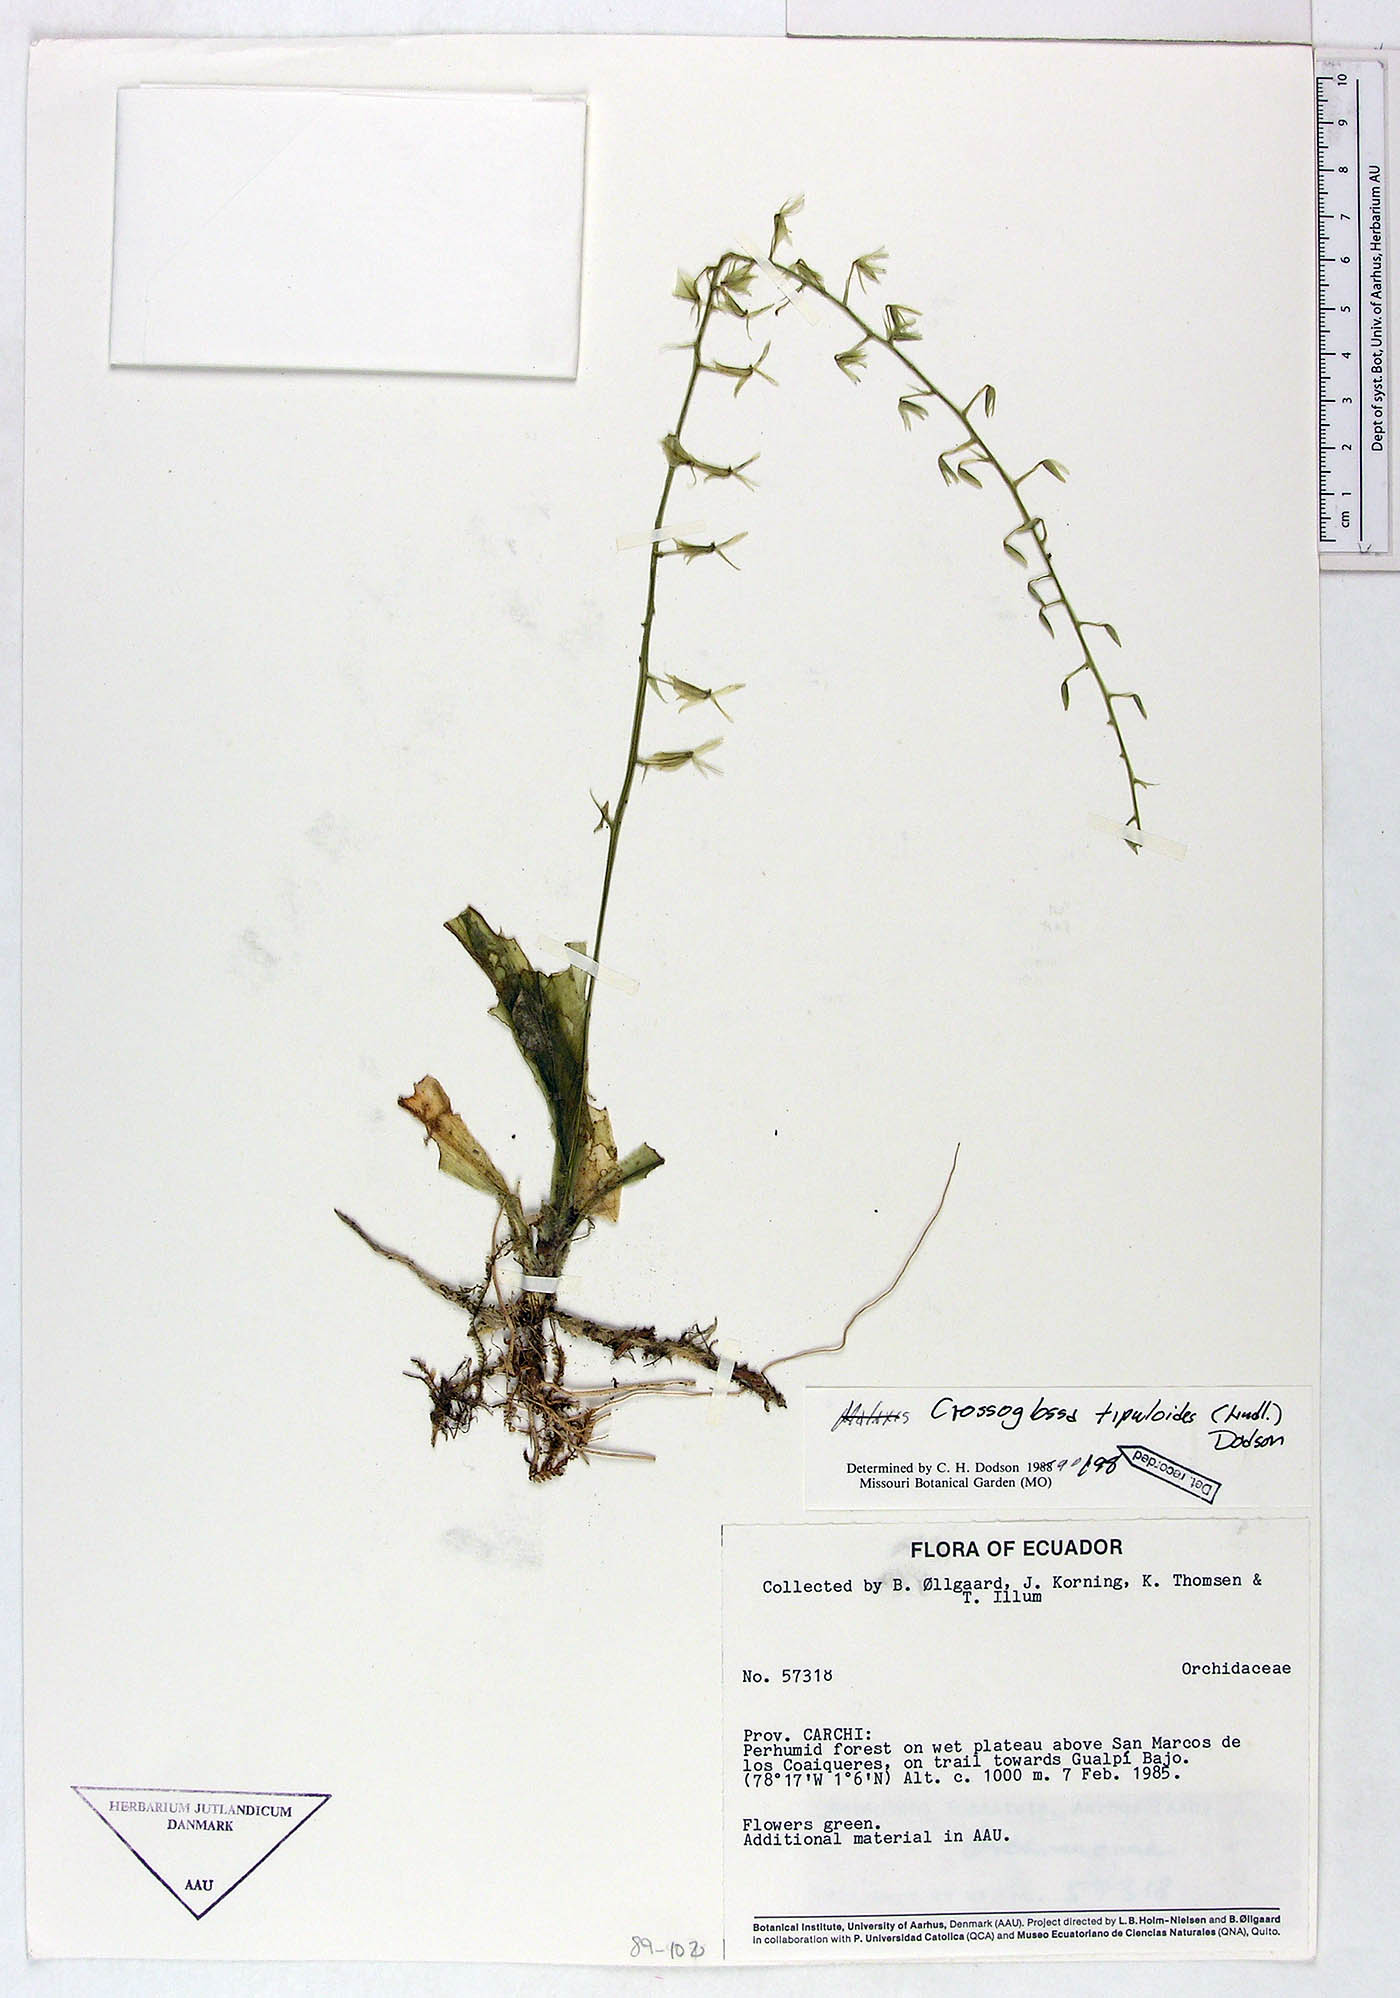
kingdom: Plantae
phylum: Tracheophyta
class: Liliopsida
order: Asparagales
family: Orchidaceae
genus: Crossoglossa
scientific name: Crossoglossa neirynckiana
